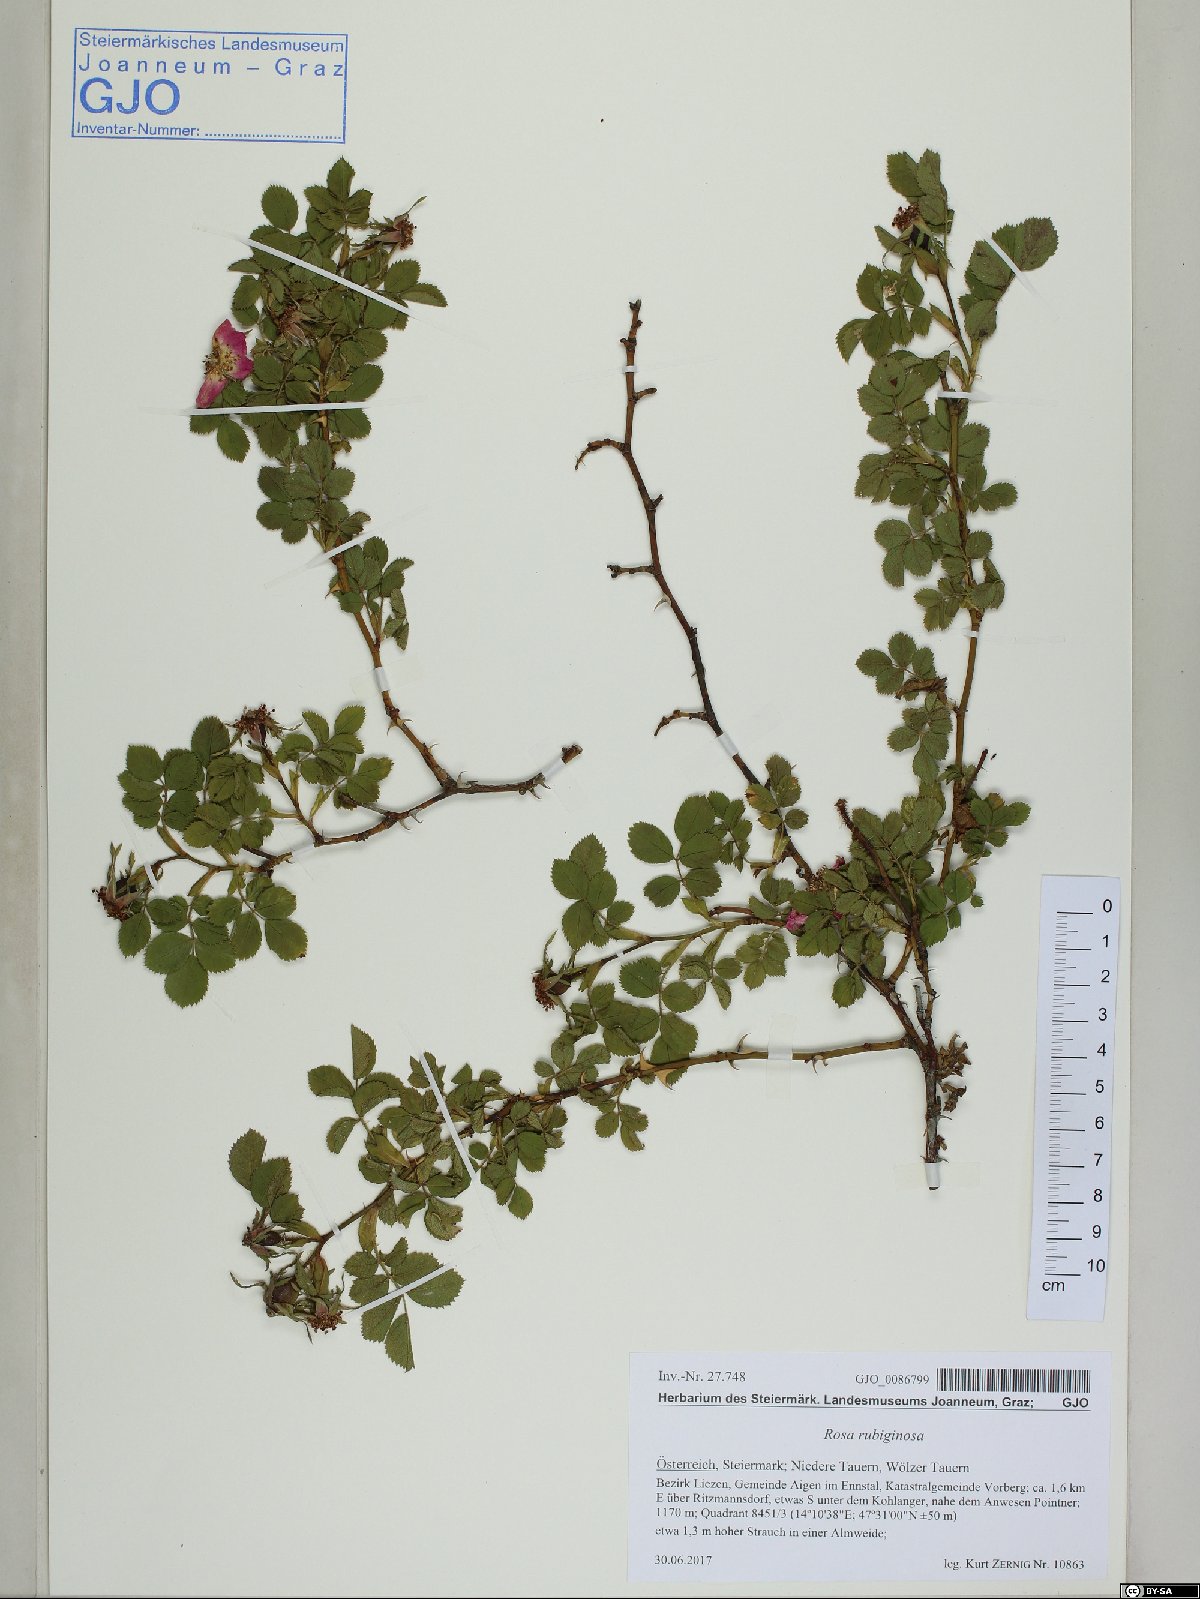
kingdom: Plantae
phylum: Tracheophyta
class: Magnoliopsida
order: Rosales
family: Rosaceae
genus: Rosa
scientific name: Rosa rubiginosa
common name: Sweet-briar
